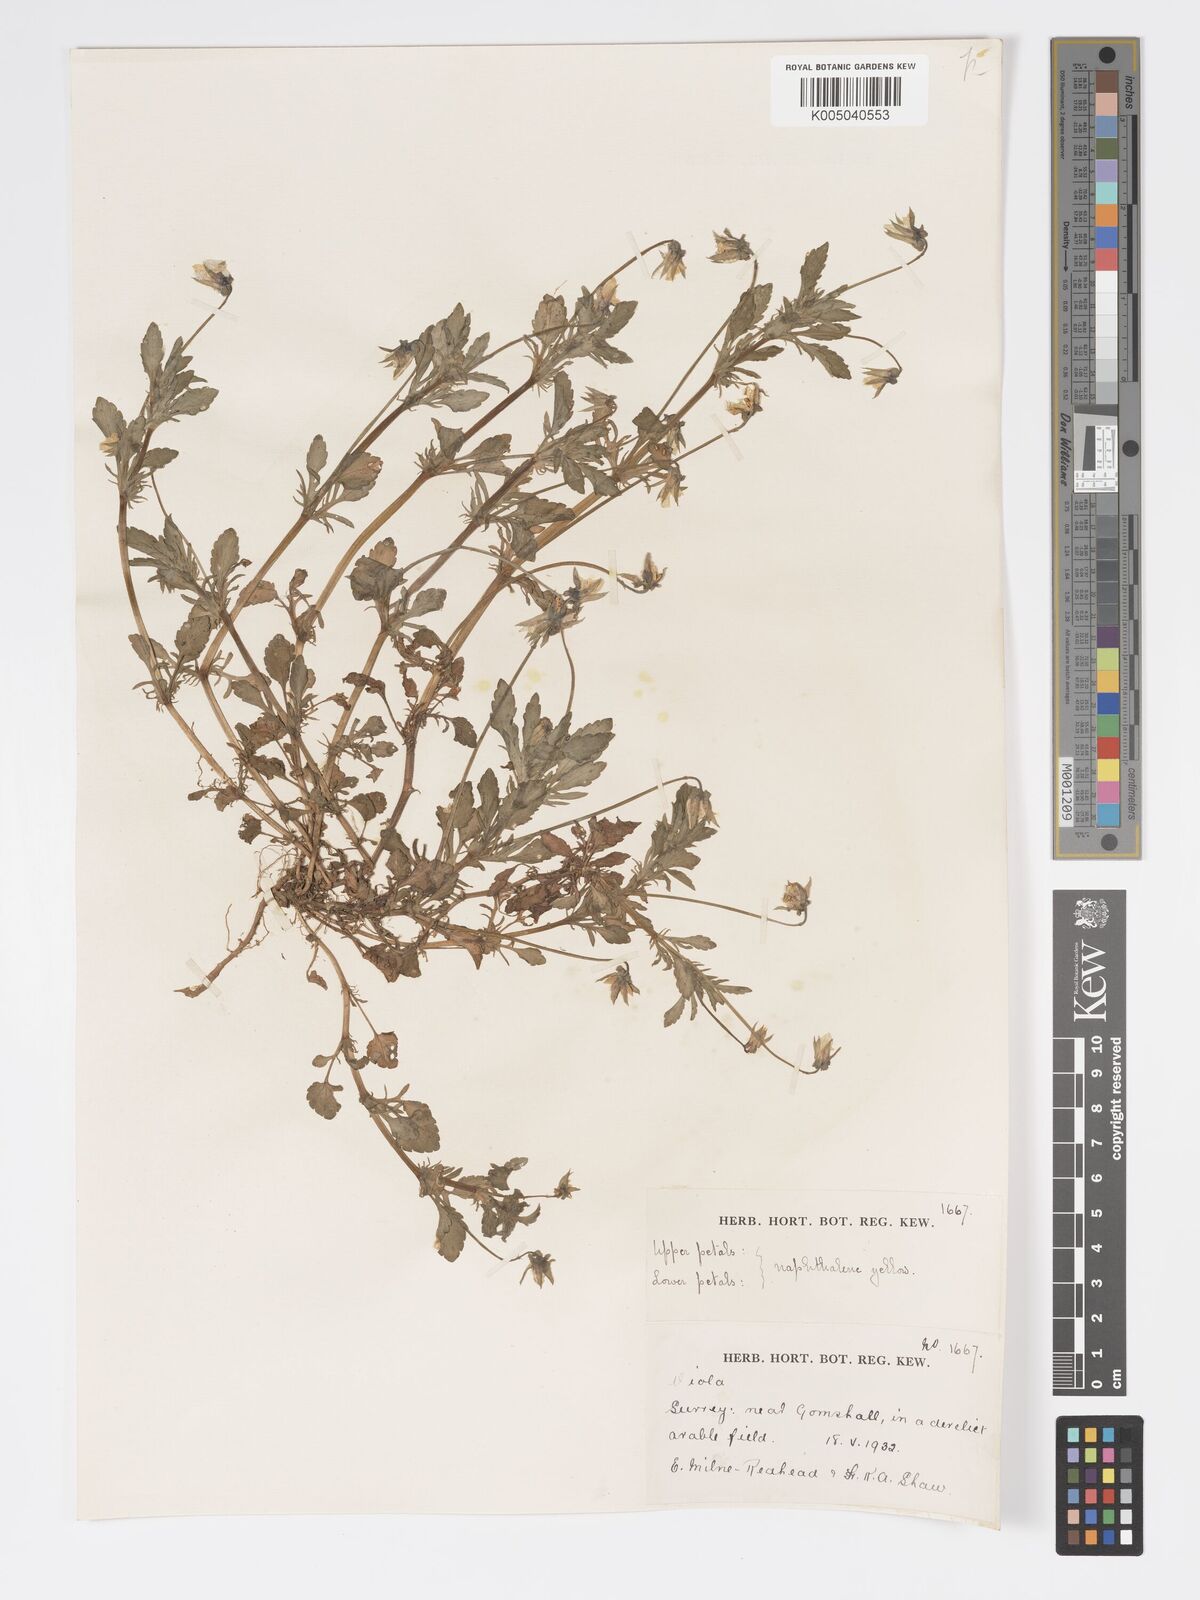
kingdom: Plantae
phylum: Tracheophyta
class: Magnoliopsida
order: Malpighiales
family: Violaceae
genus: Viola
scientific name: Viola
